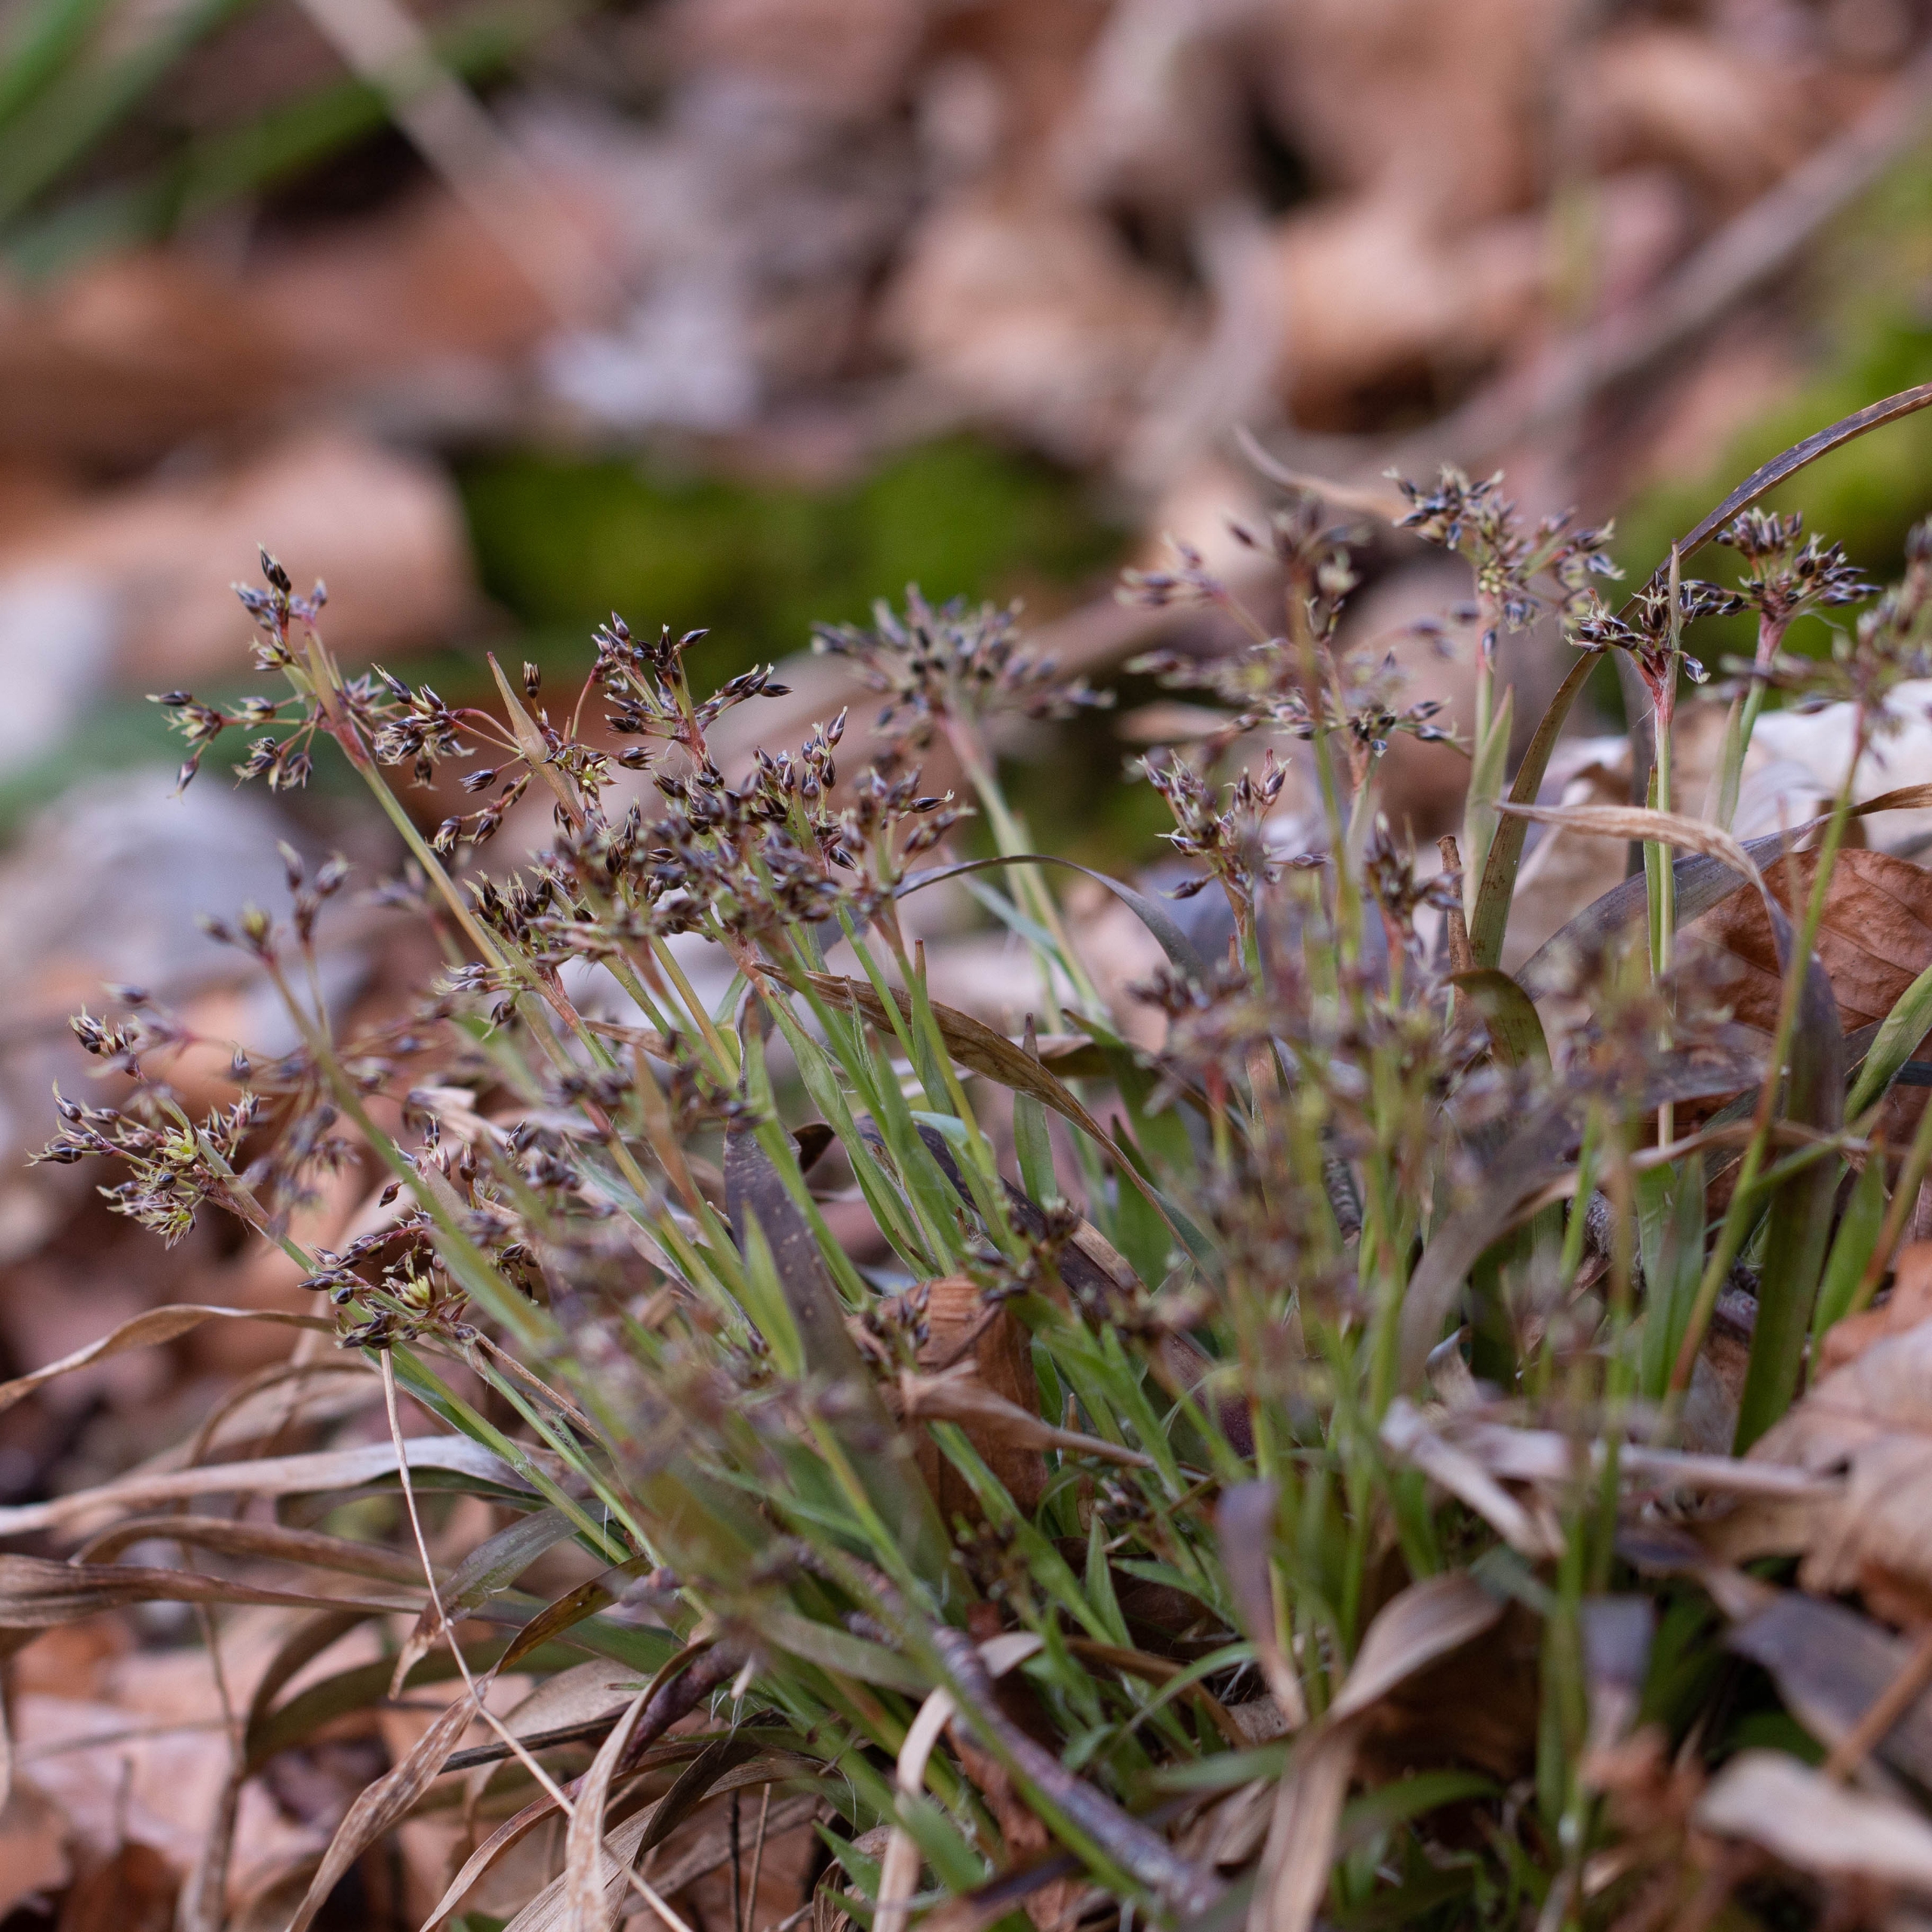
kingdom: Plantae
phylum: Tracheophyta
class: Liliopsida
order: Poales
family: Juncaceae
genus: Luzula
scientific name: Luzula pilosa
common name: Håret frytle
